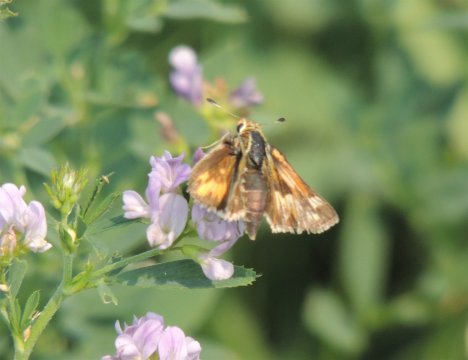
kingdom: Animalia
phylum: Arthropoda
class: Insecta
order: Lepidoptera
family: Hesperiidae
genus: Ochlodes
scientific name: Ochlodes sylvanoides
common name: Woodland Skipper
